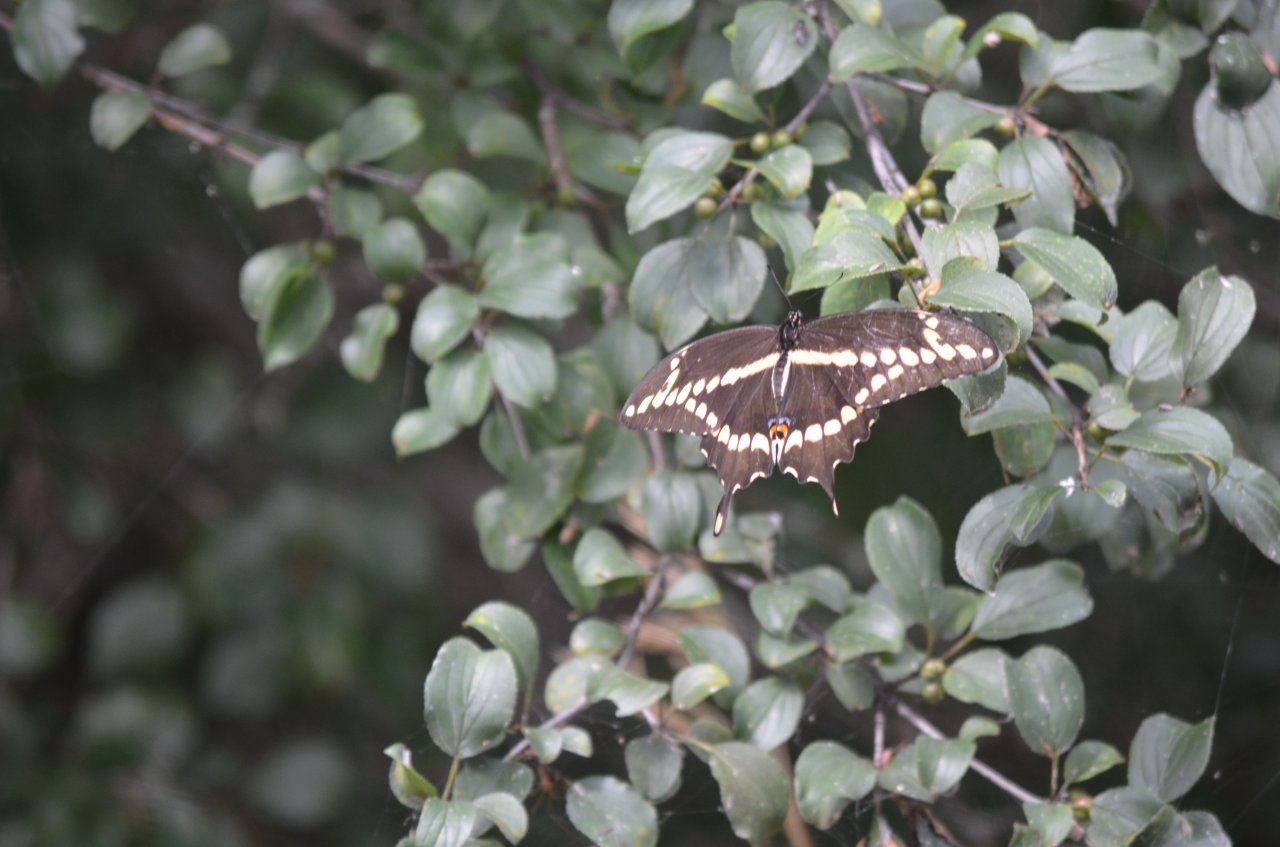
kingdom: Animalia
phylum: Arthropoda
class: Insecta
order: Lepidoptera
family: Papilionidae
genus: Papilio
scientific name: Papilio cresphontes
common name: Eastern Giant Swallowtail
